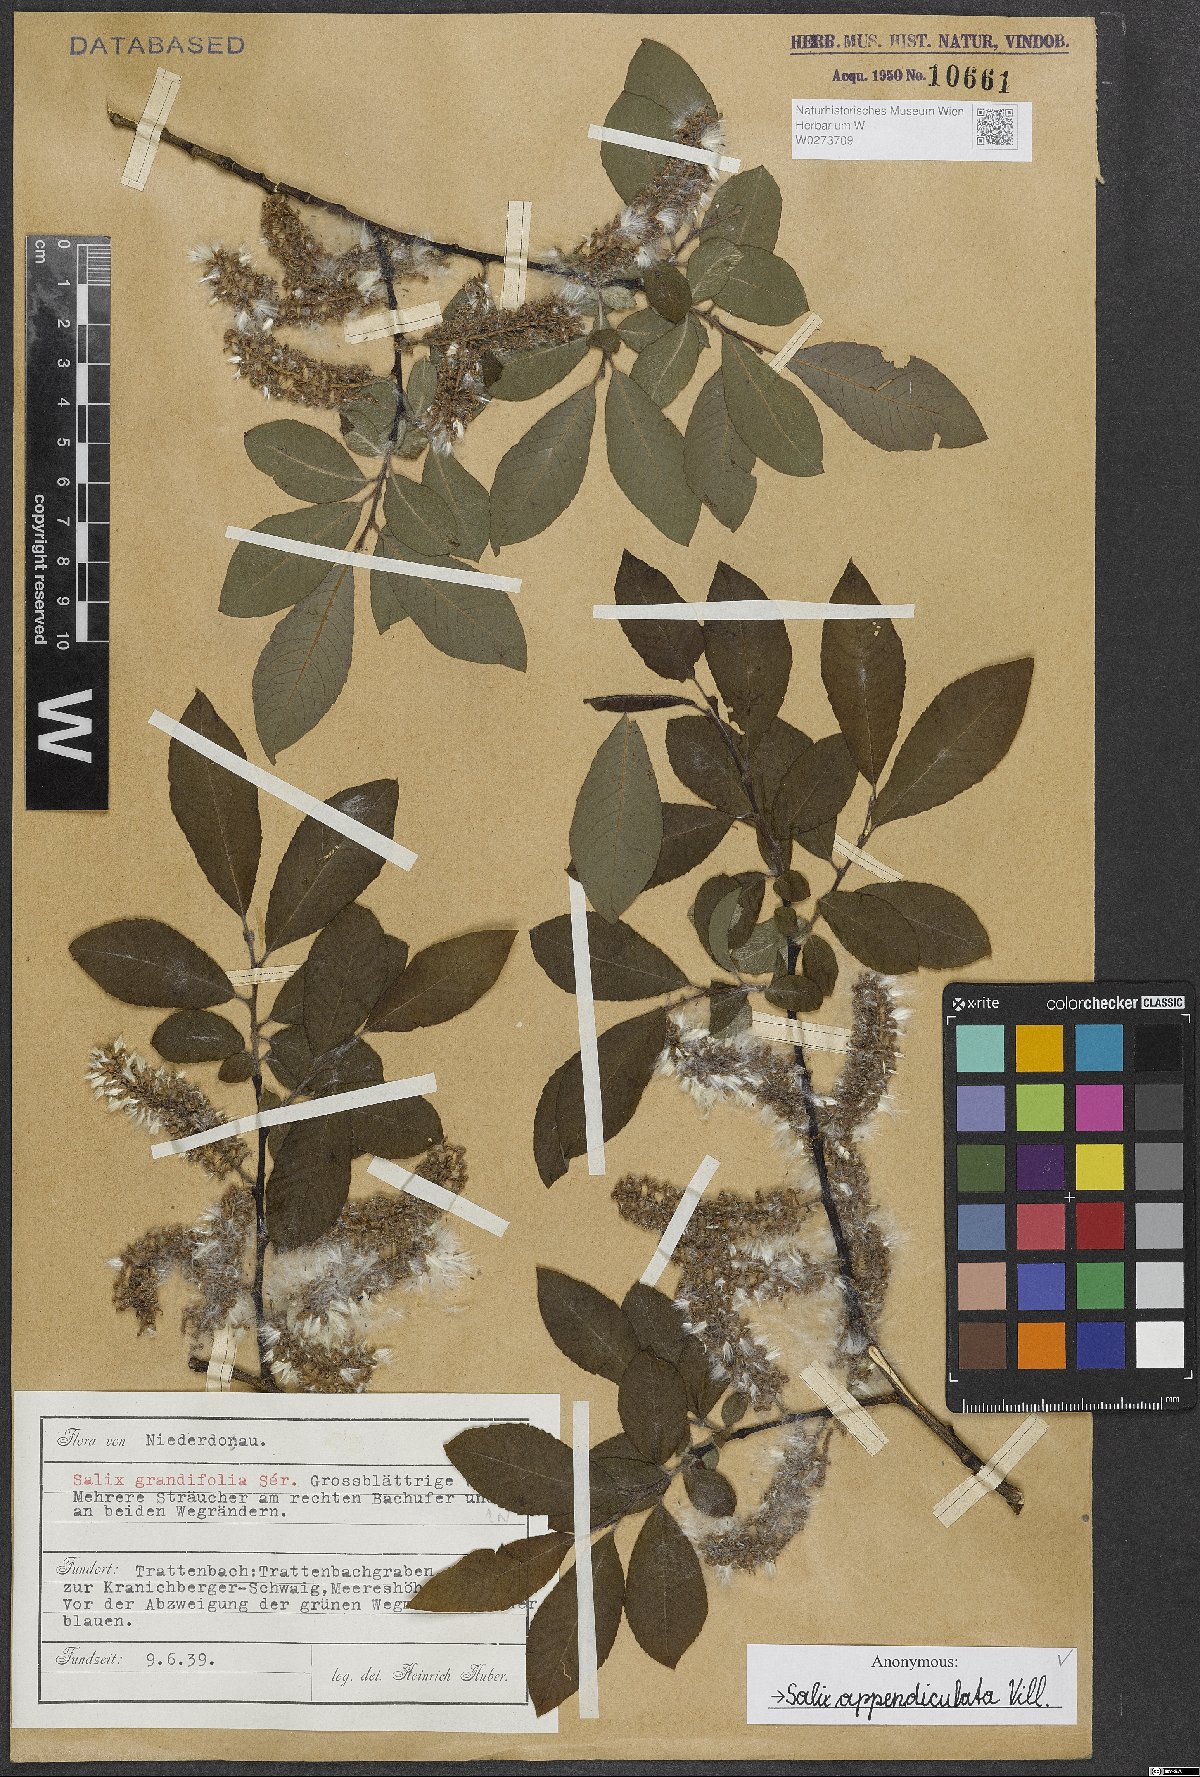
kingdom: Plantae
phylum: Tracheophyta
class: Magnoliopsida
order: Malpighiales
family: Salicaceae
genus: Salix
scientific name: Salix appendiculata
